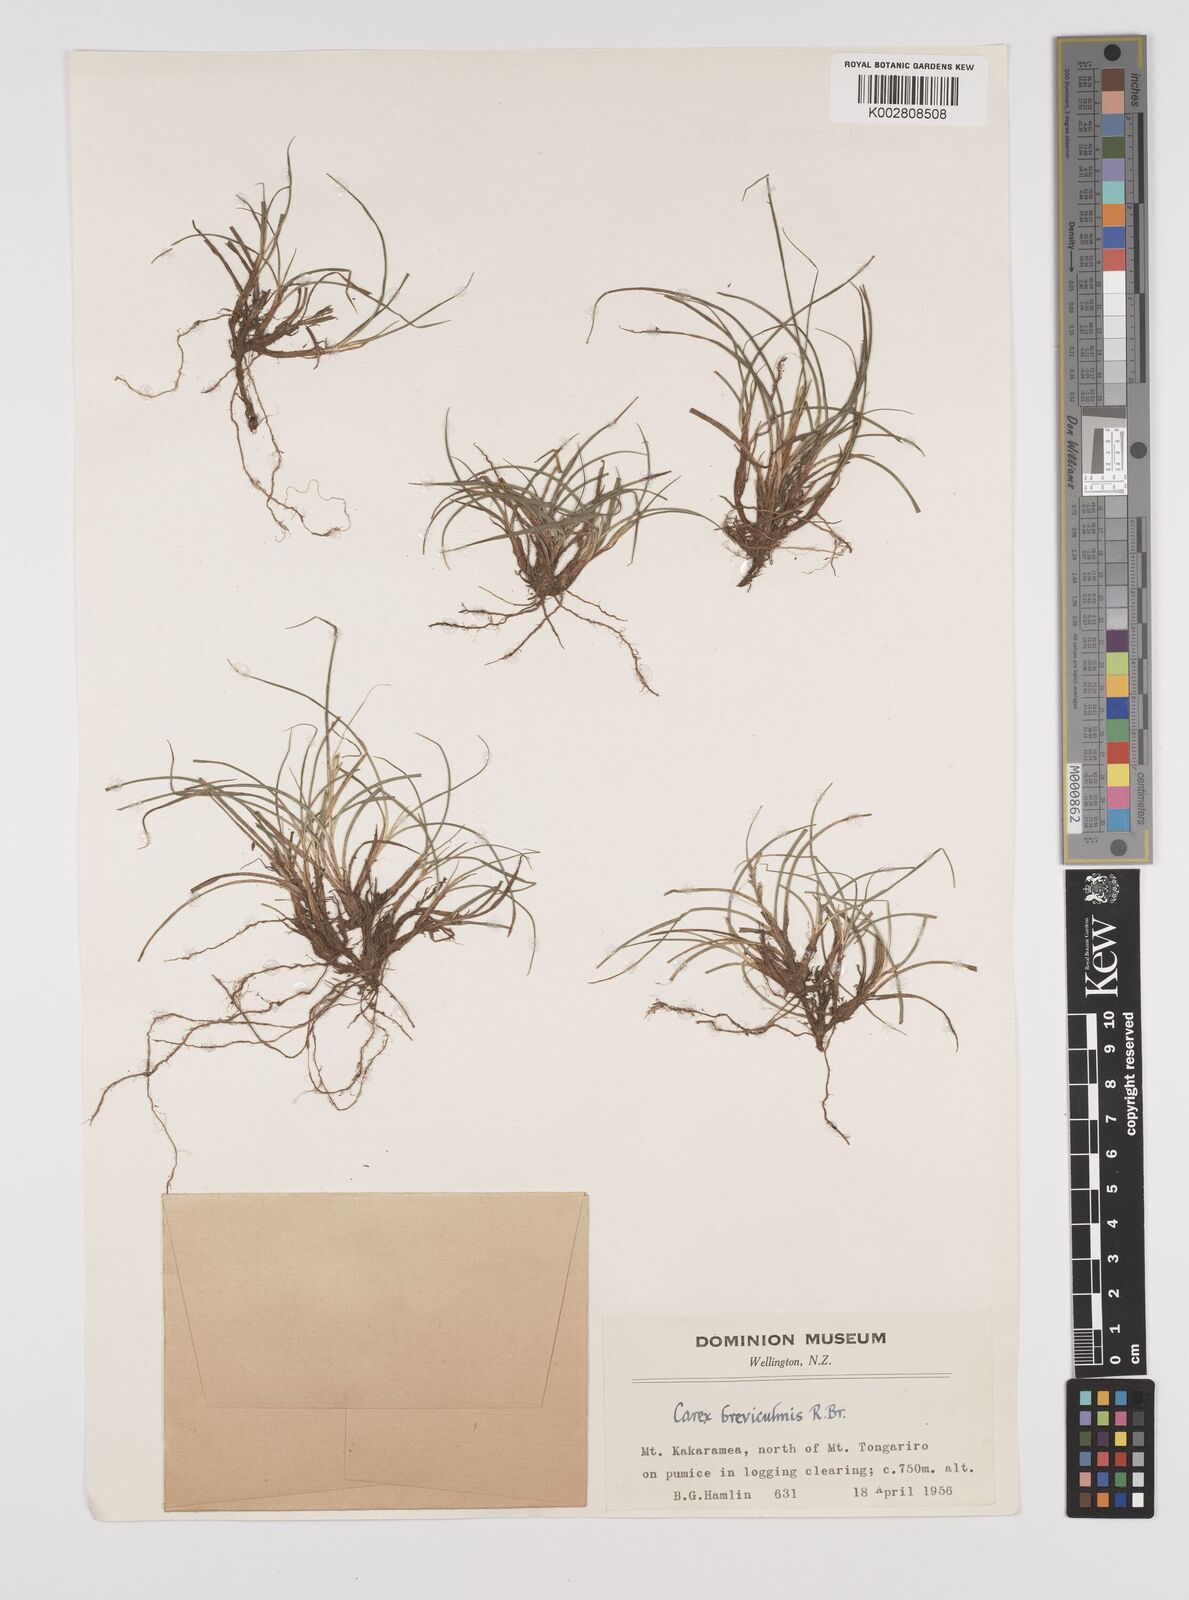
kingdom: Plantae
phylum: Tracheophyta
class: Liliopsida
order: Poales
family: Cyperaceae
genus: Carex
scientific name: Carex breviculmis
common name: Asian shortstem sedge
